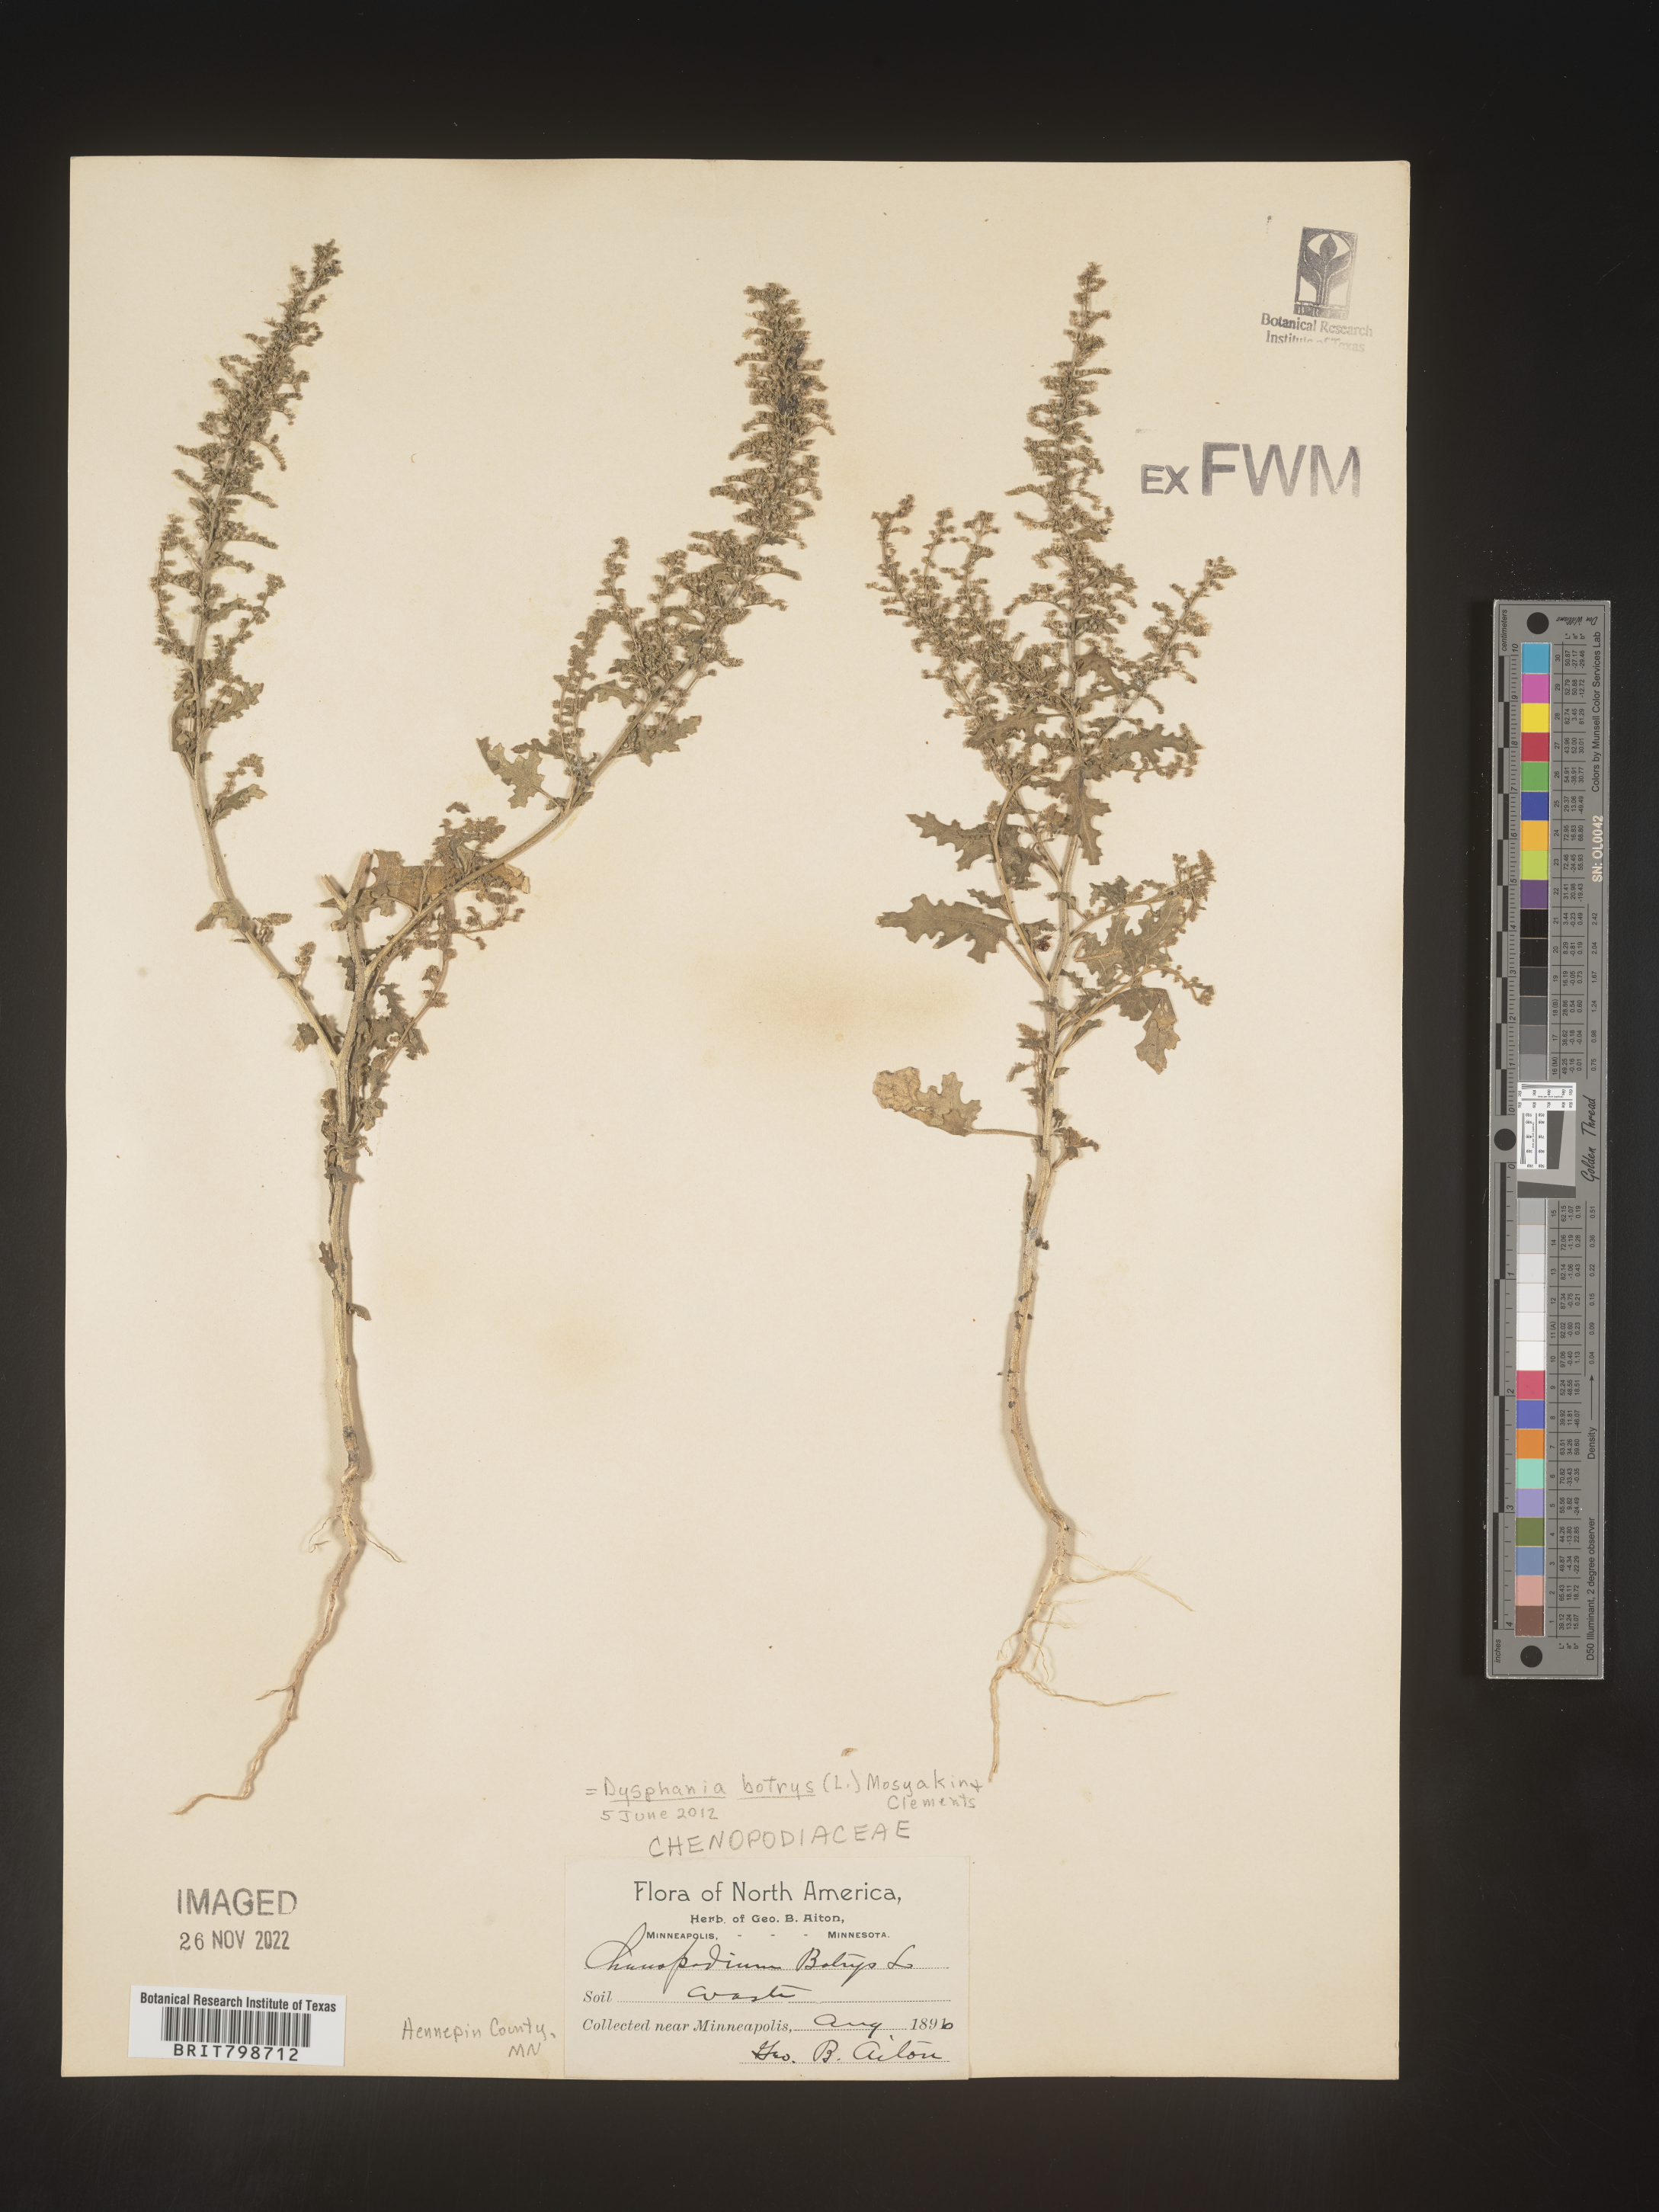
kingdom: Plantae
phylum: Tracheophyta
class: Magnoliopsida
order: Caryophyllales
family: Amaranthaceae
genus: Dysphania
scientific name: Dysphania botrys
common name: Feather-geranium
